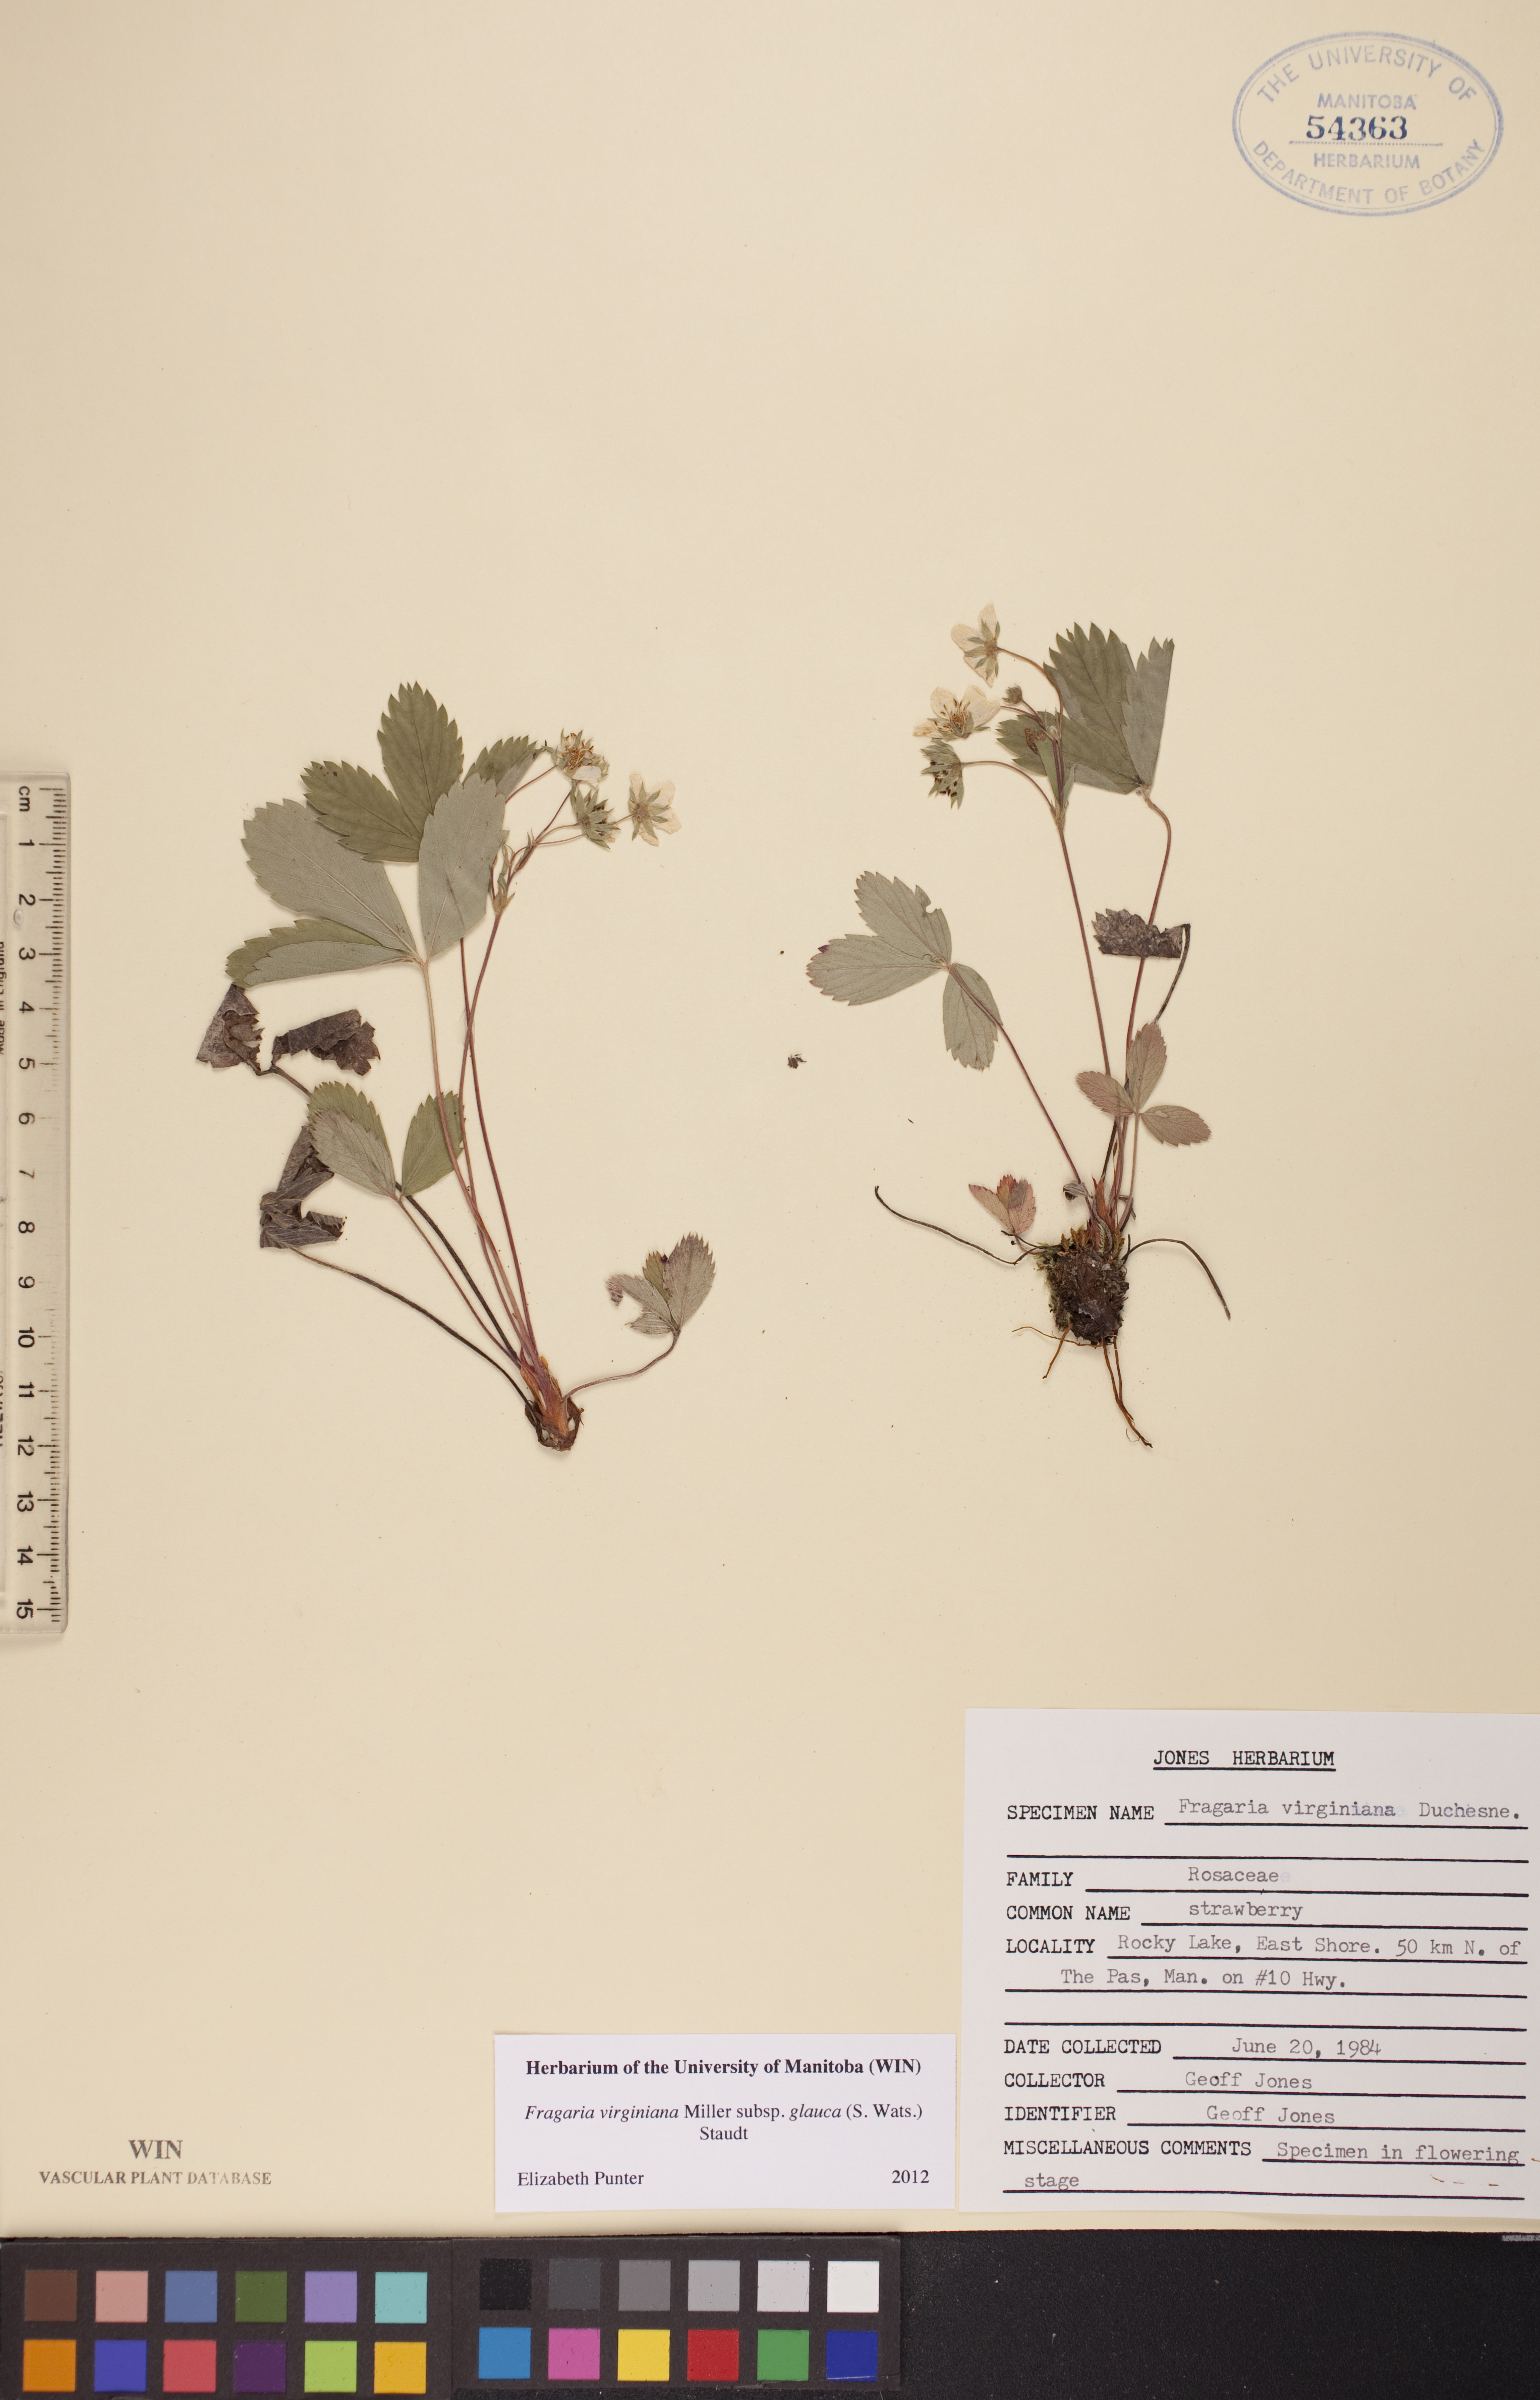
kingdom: Plantae
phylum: Tracheophyta
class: Magnoliopsida
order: Rosales
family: Rosaceae
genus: Fragaria
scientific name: Fragaria virginiana
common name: Thickleaved wild strawberry
